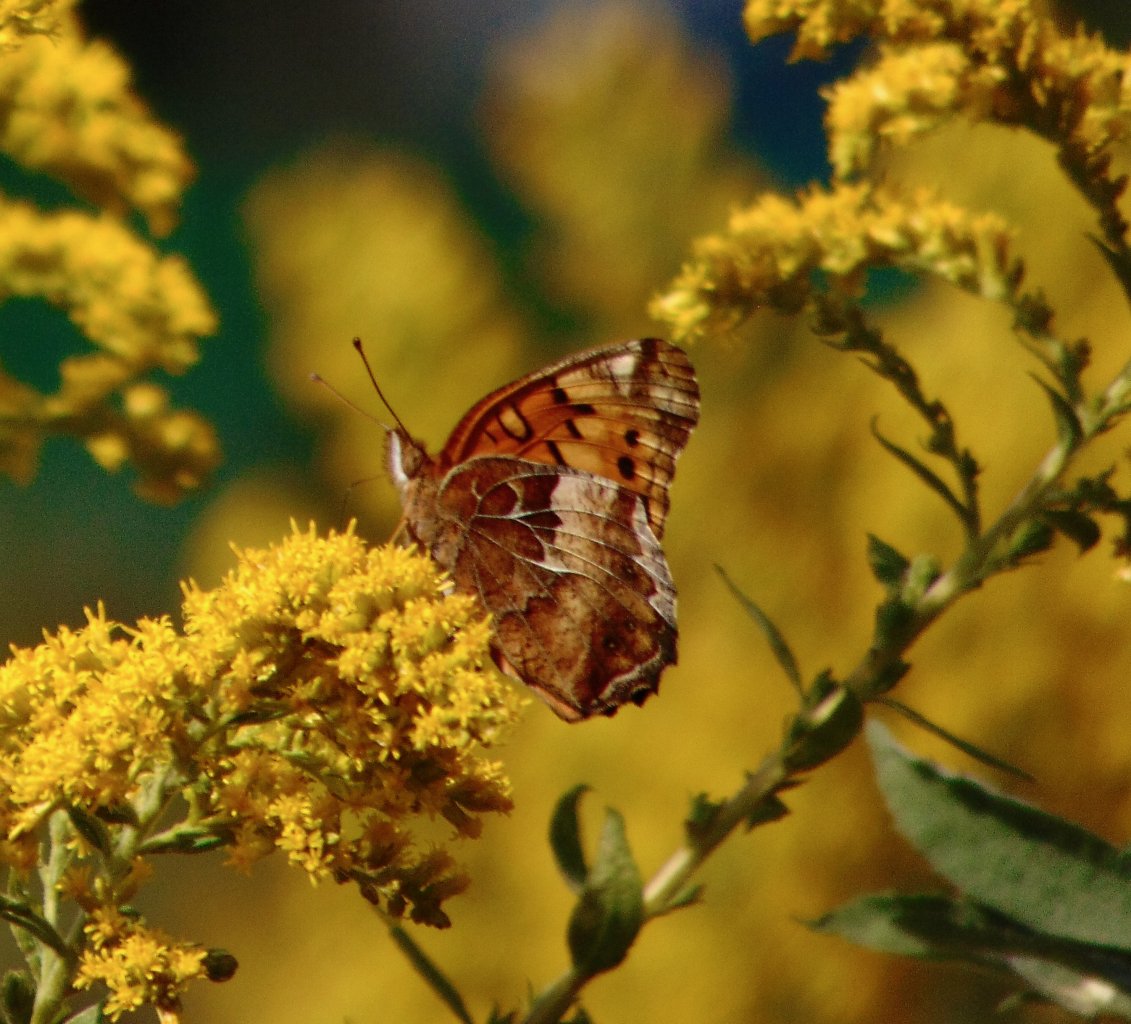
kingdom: Animalia
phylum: Arthropoda
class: Insecta
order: Lepidoptera
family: Nymphalidae
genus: Euptoieta
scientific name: Euptoieta claudia
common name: Variegated Fritillary
